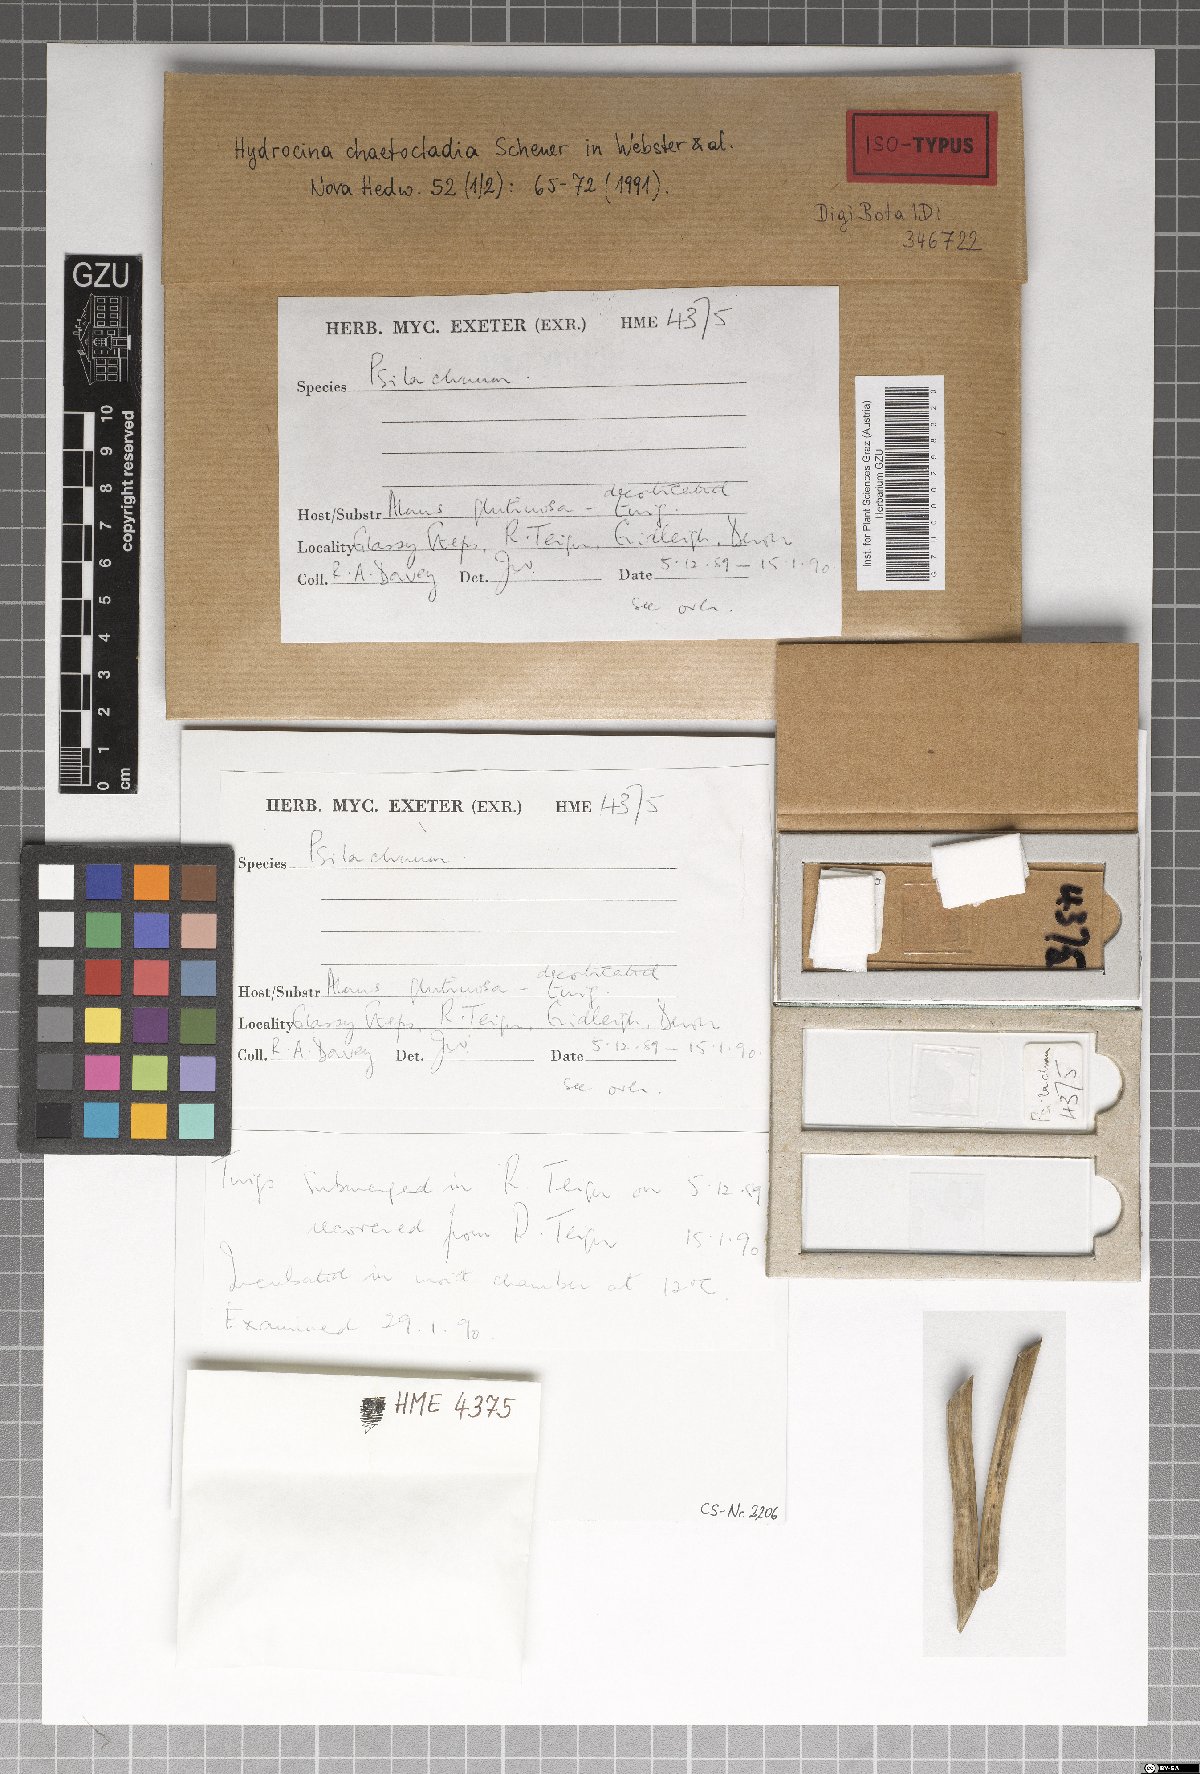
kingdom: Fungi
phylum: Ascomycota
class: Leotiomycetes
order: Helotiales
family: Hydrocinaceae
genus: Hydrocina
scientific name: Hydrocina chaetocladia
